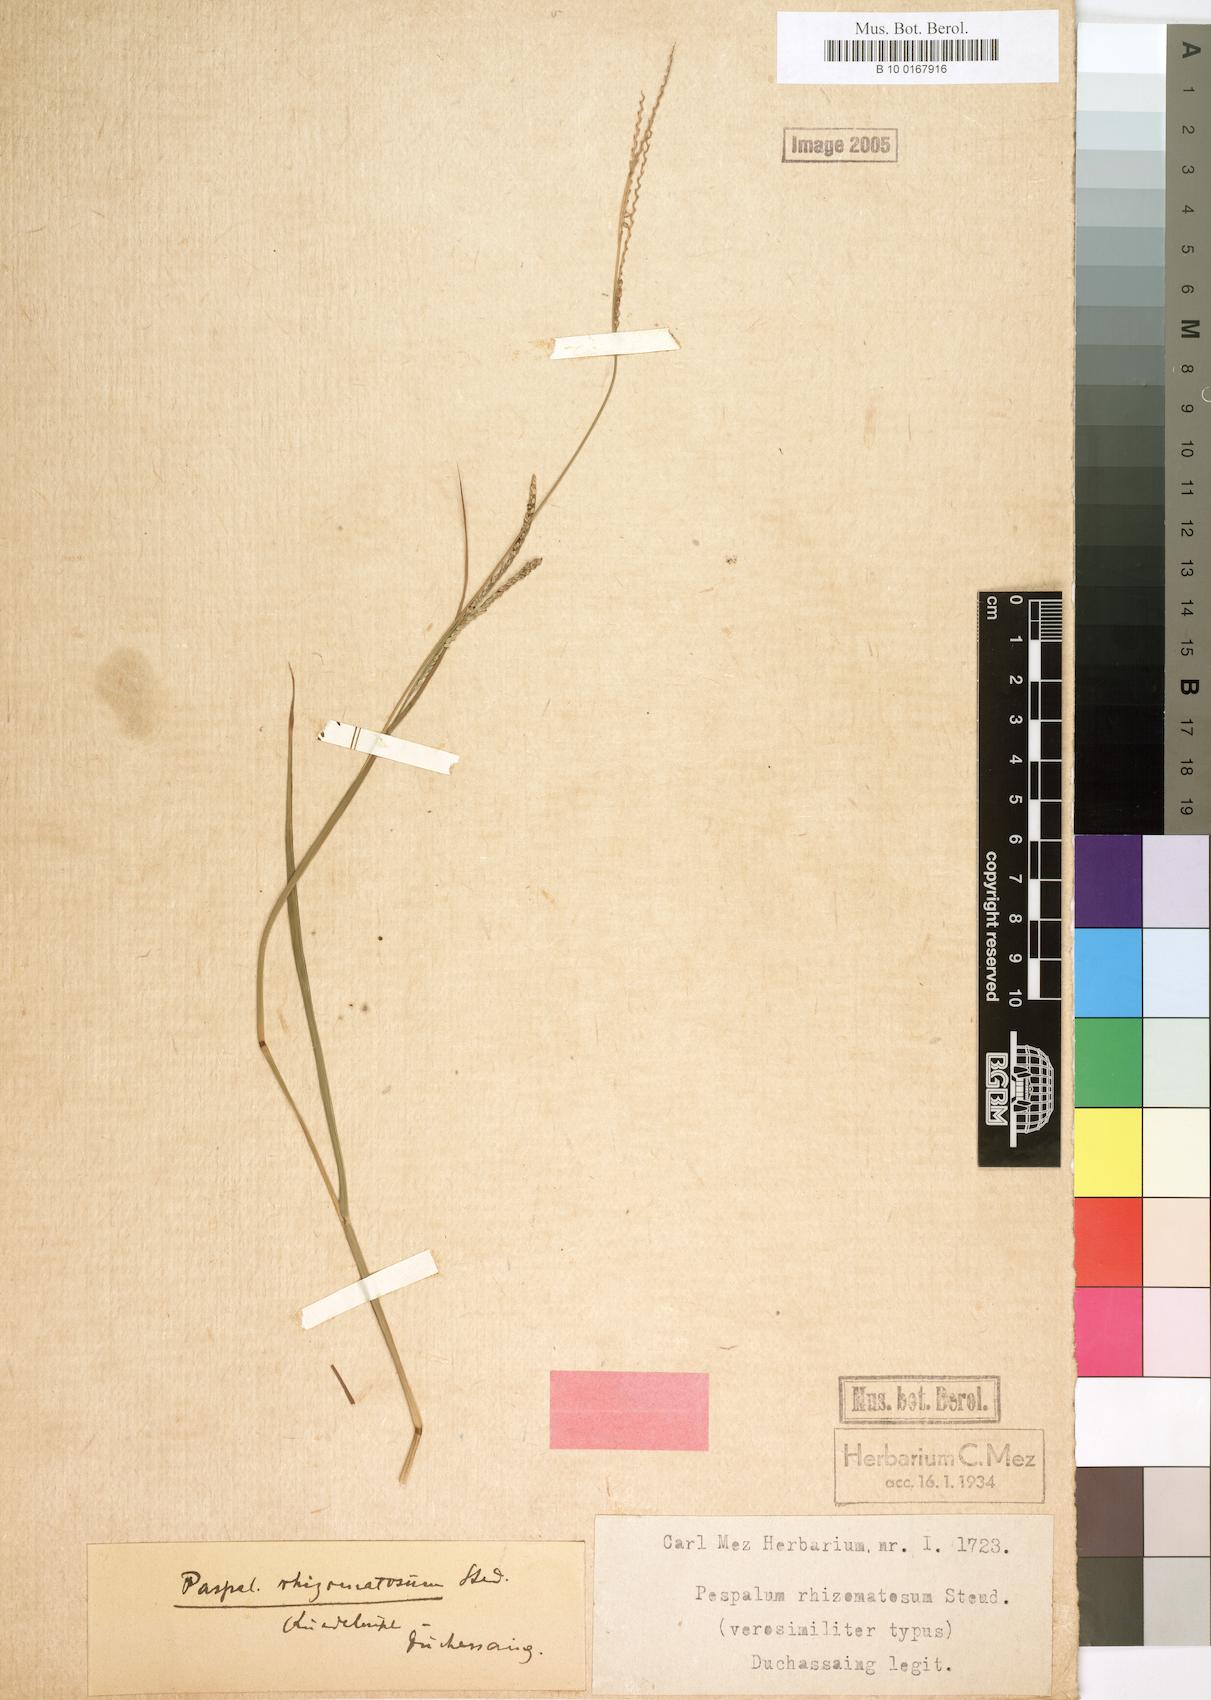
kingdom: Plantae
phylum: Tracheophyta
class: Liliopsida
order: Poales
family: Poaceae
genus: Paspalum
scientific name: Paspalum laxum
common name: Coconut paspalum
